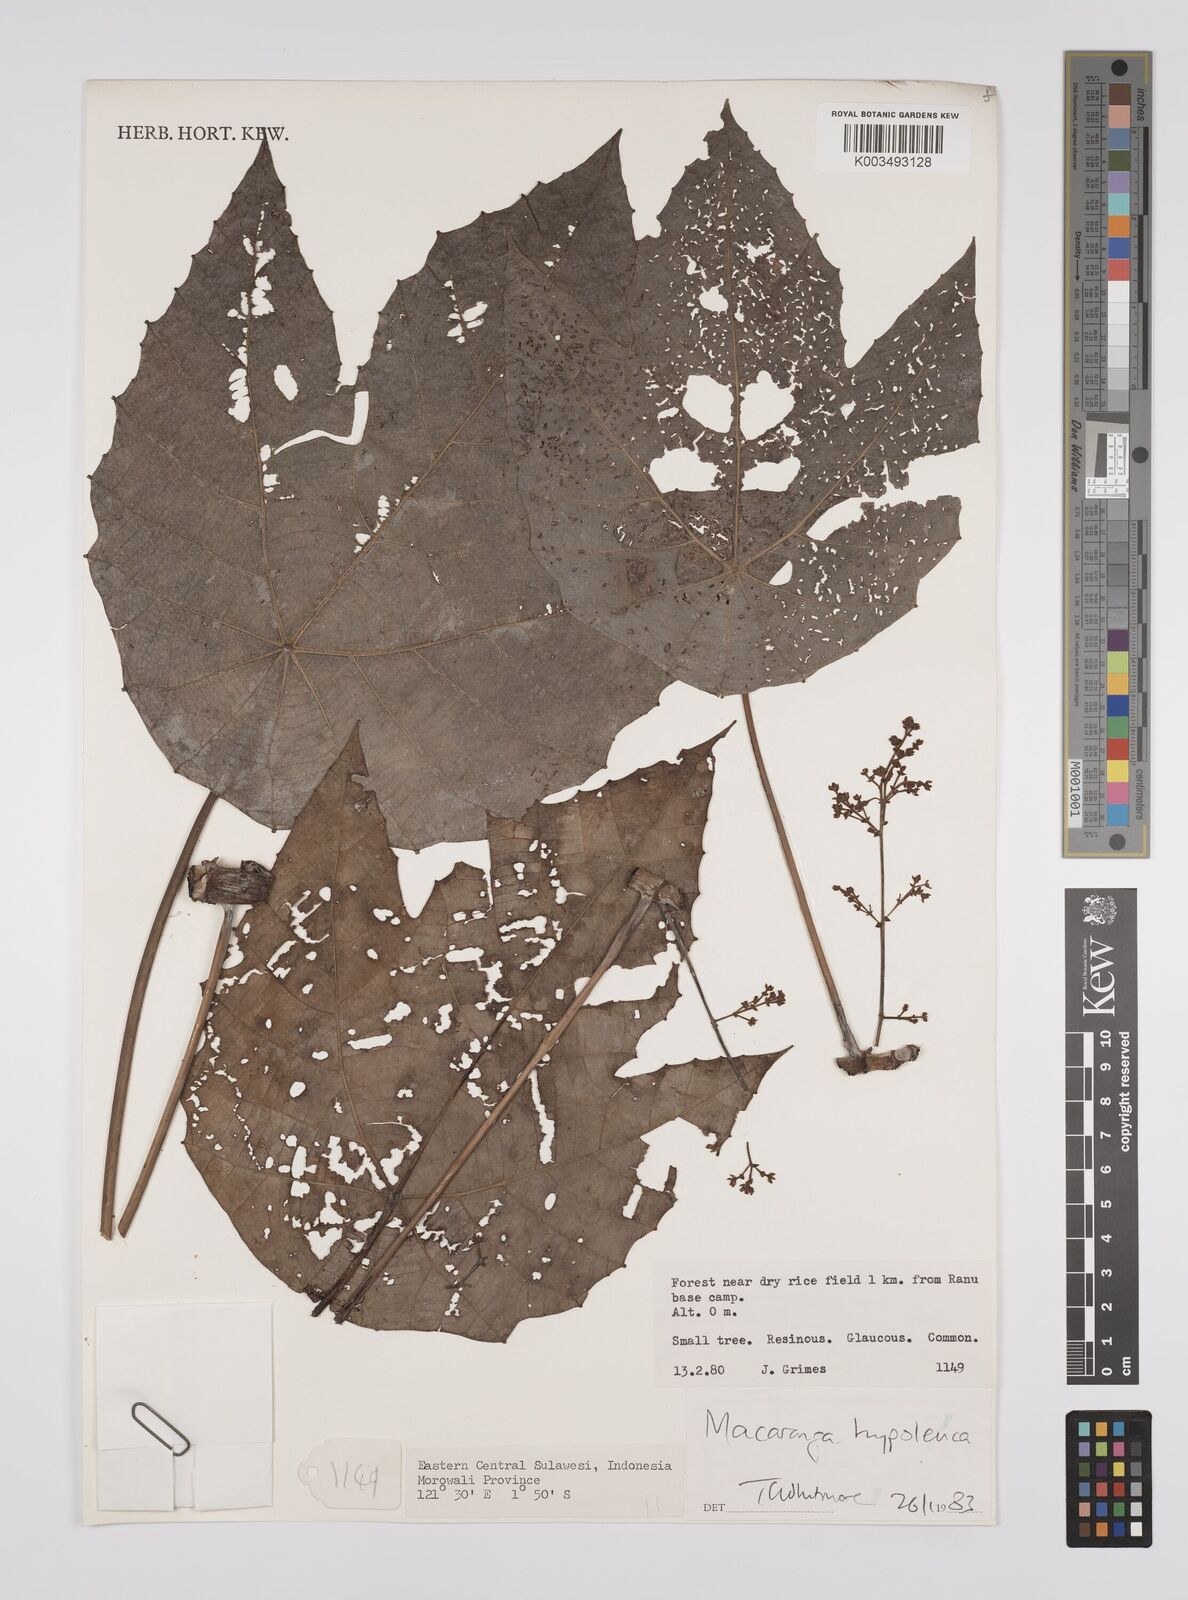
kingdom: Plantae
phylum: Tracheophyta
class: Magnoliopsida
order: Malpighiales
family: Euphorbiaceae
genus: Macaranga
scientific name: Macaranga hypoleuca
